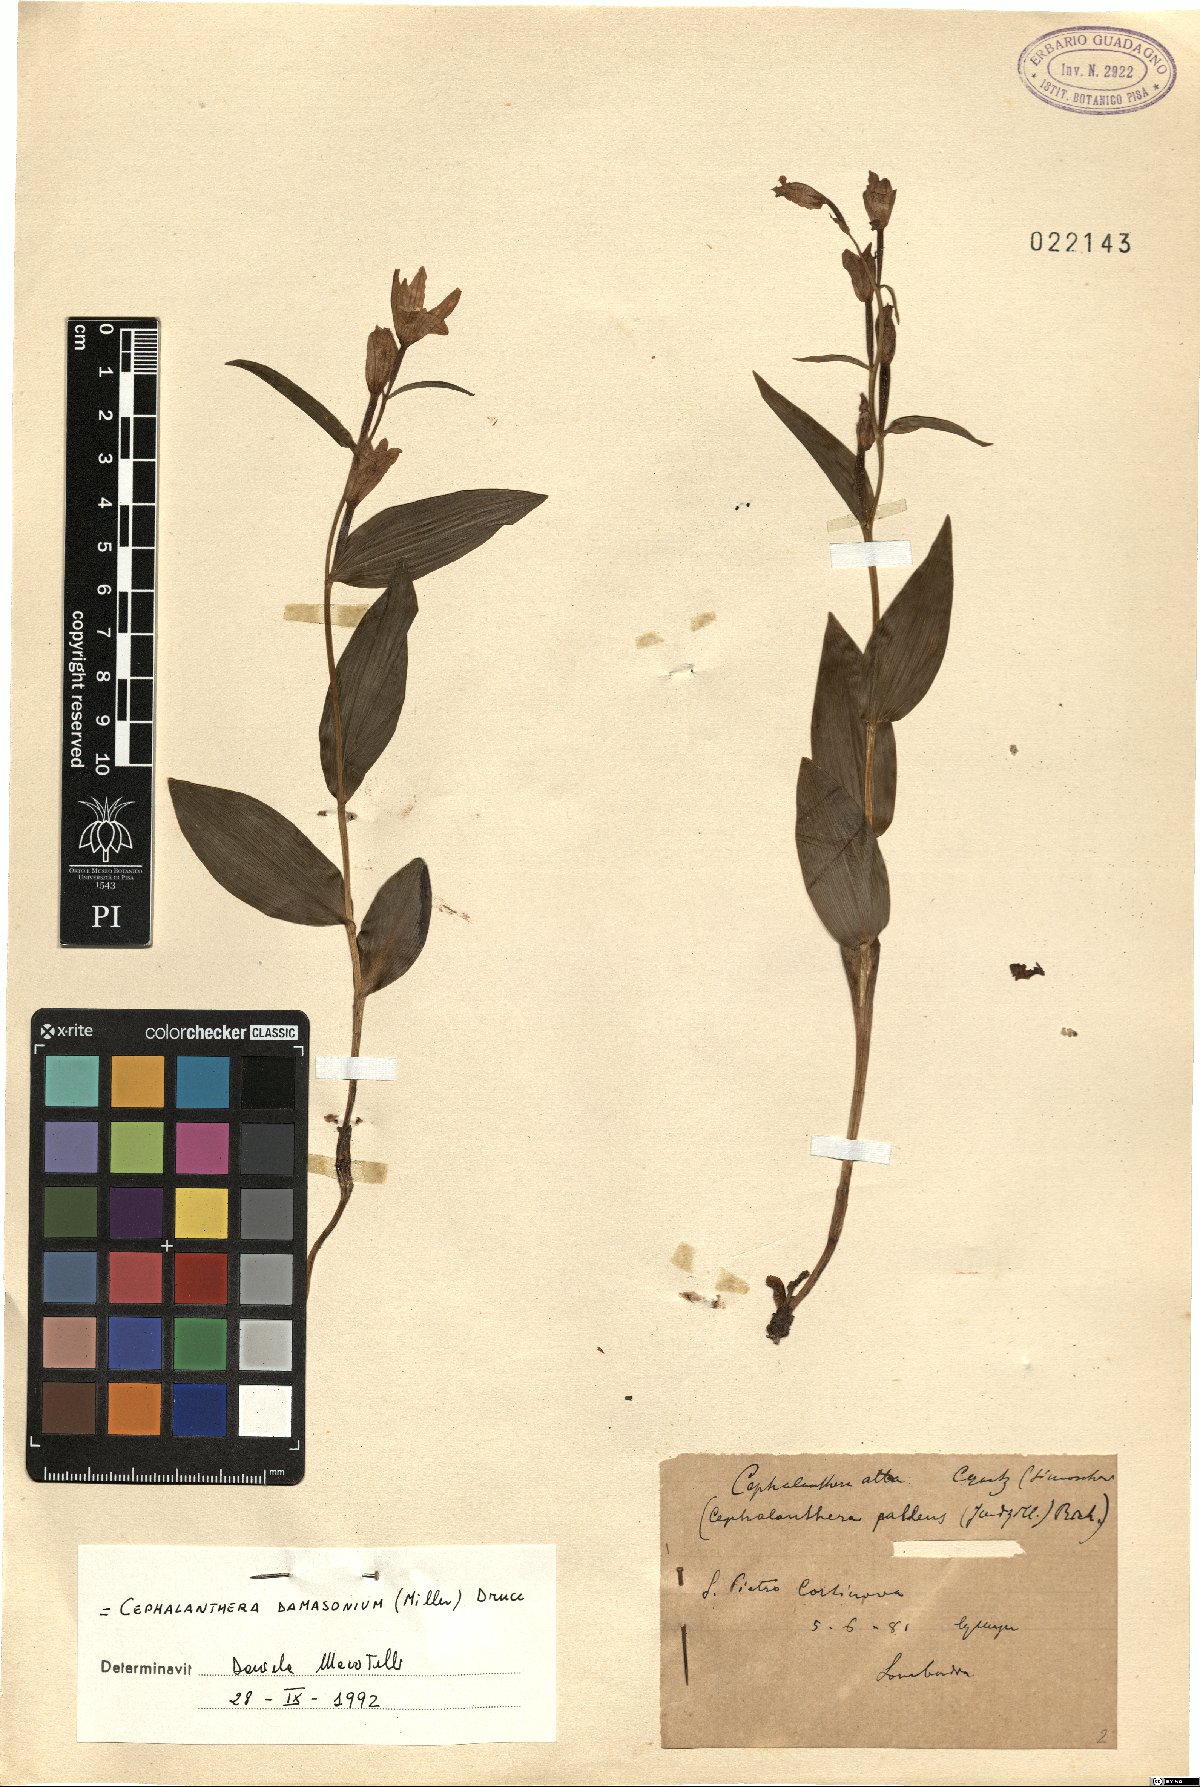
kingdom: Plantae
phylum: Tracheophyta
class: Liliopsida
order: Asparagales
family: Orchidaceae
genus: Cephalanthera
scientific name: Cephalanthera damasonium
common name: White helleborine
